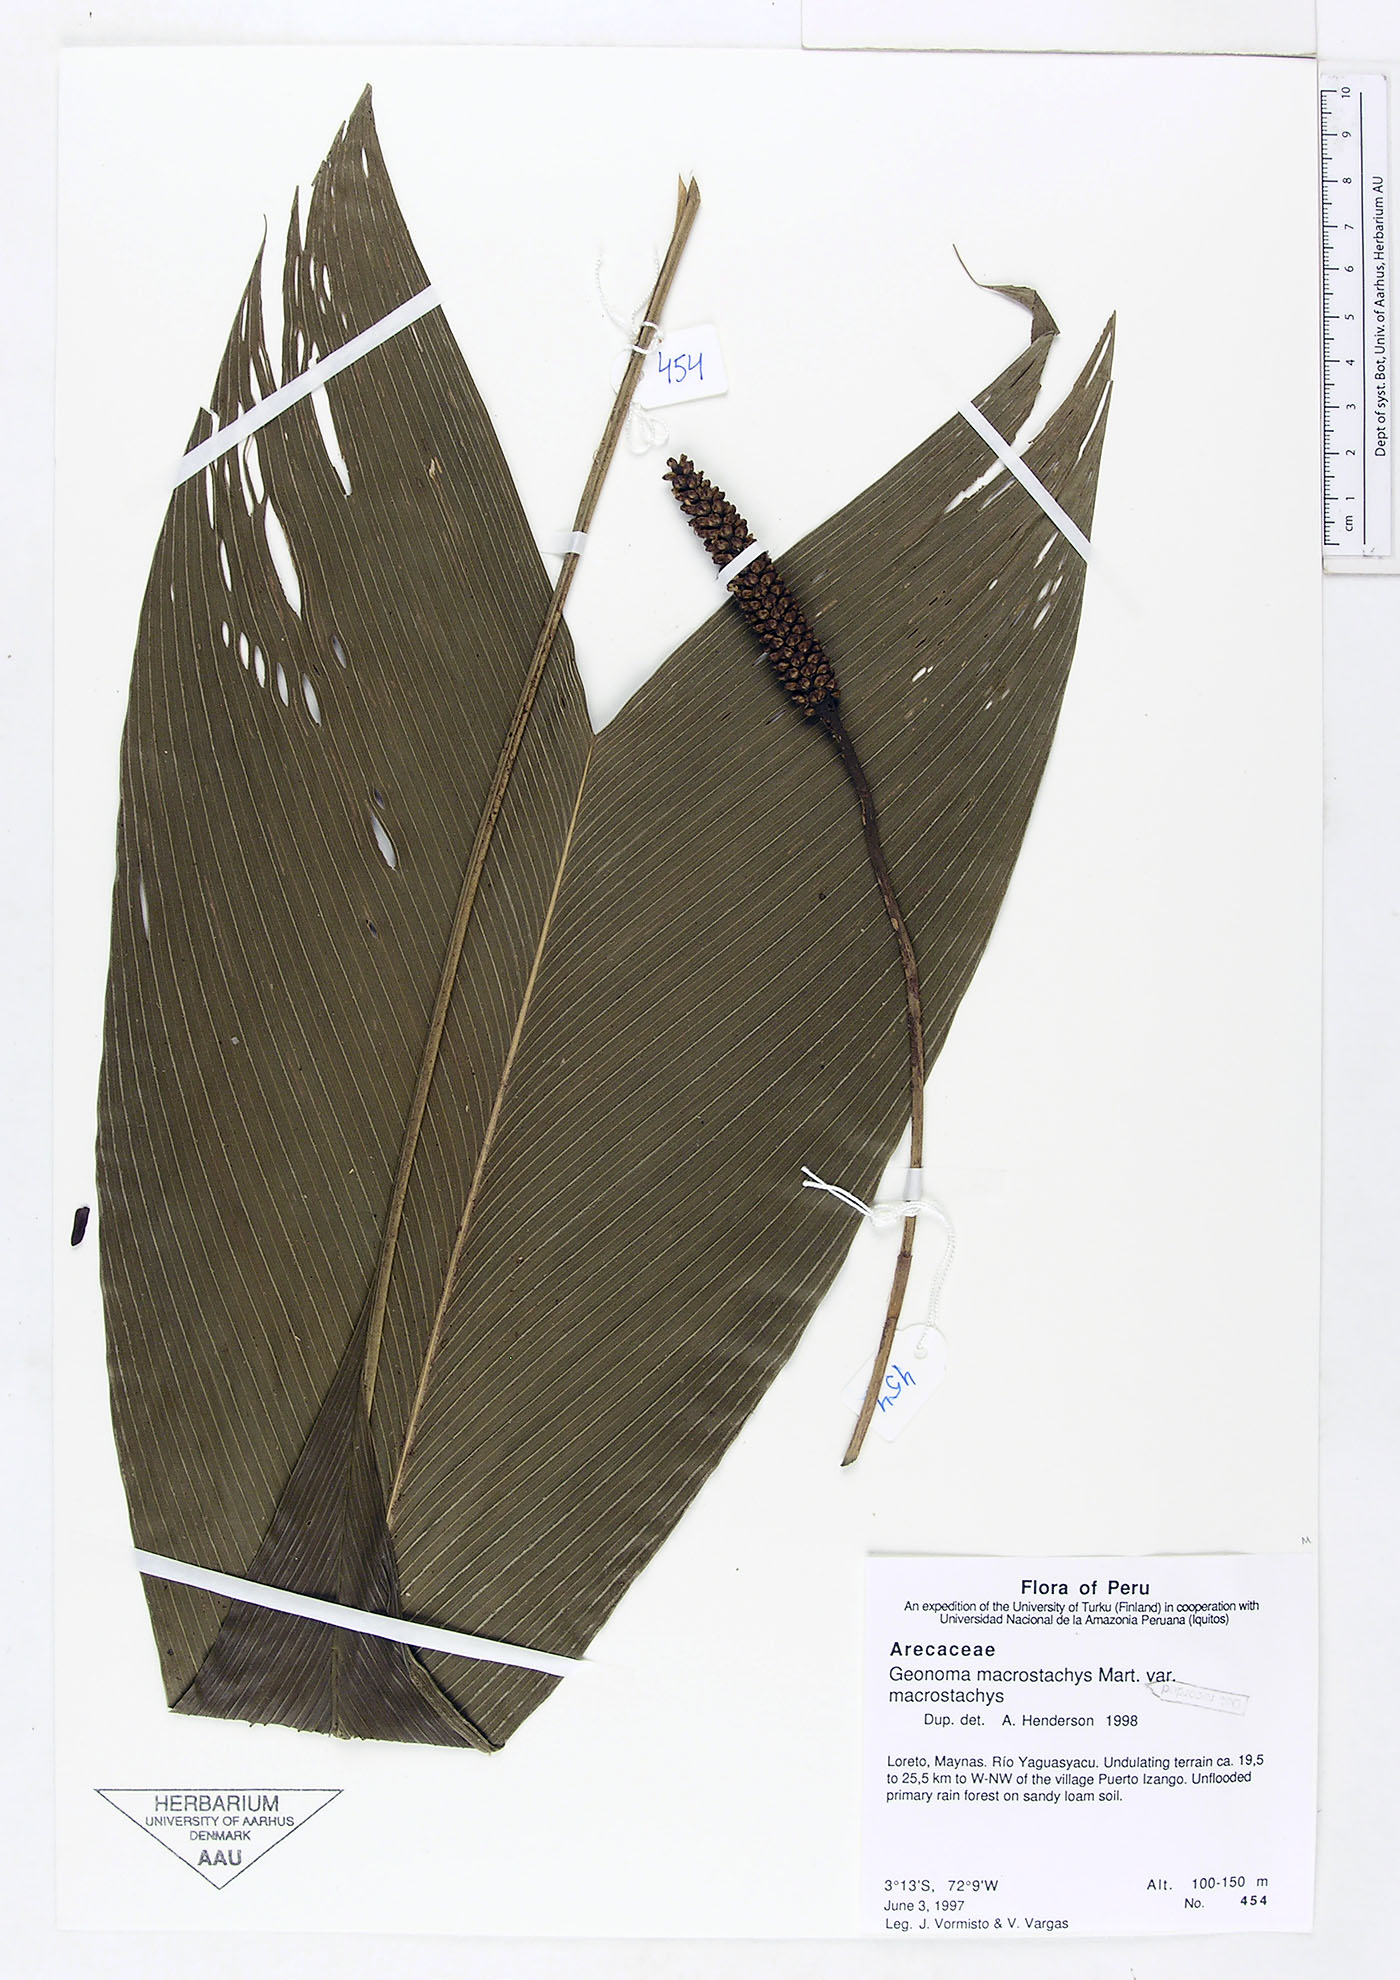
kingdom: Plantae
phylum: Tracheophyta
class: Liliopsida
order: Arecales
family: Arecaceae
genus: Geonoma
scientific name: Geonoma macrostachys
